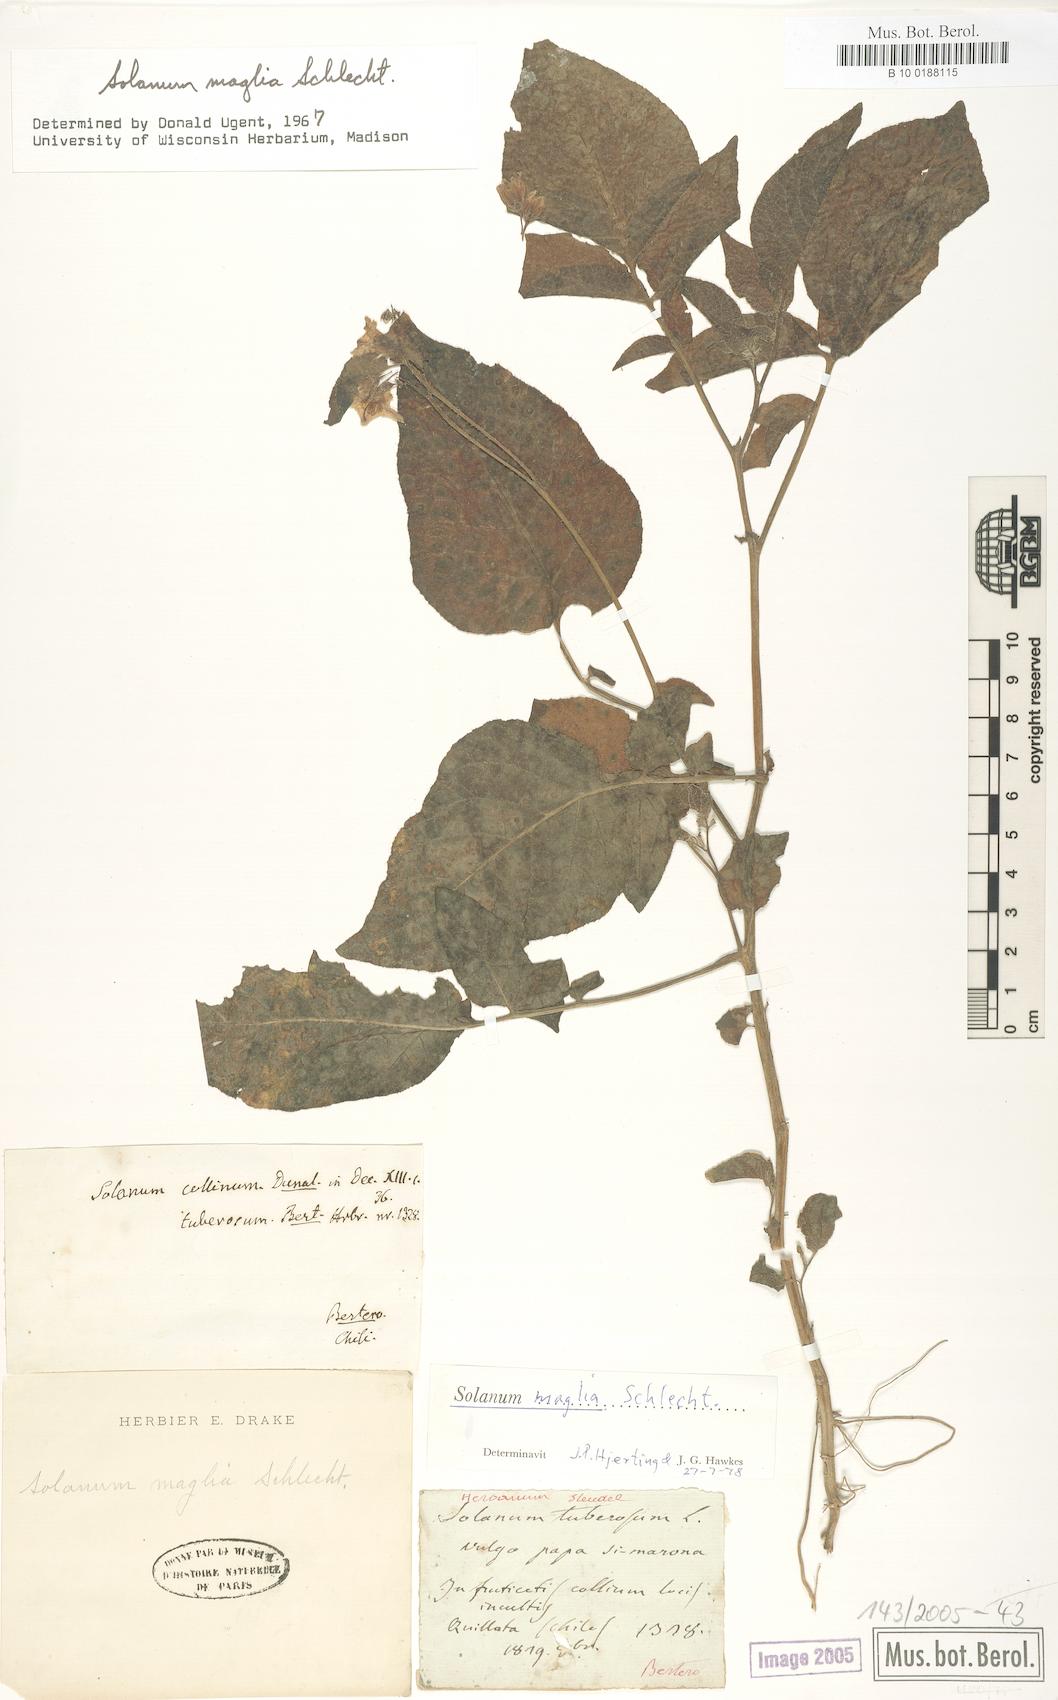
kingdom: Plantae
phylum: Tracheophyta
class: Magnoliopsida
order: Solanales
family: Solanaceae
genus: Solanum
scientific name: Solanum maglia
